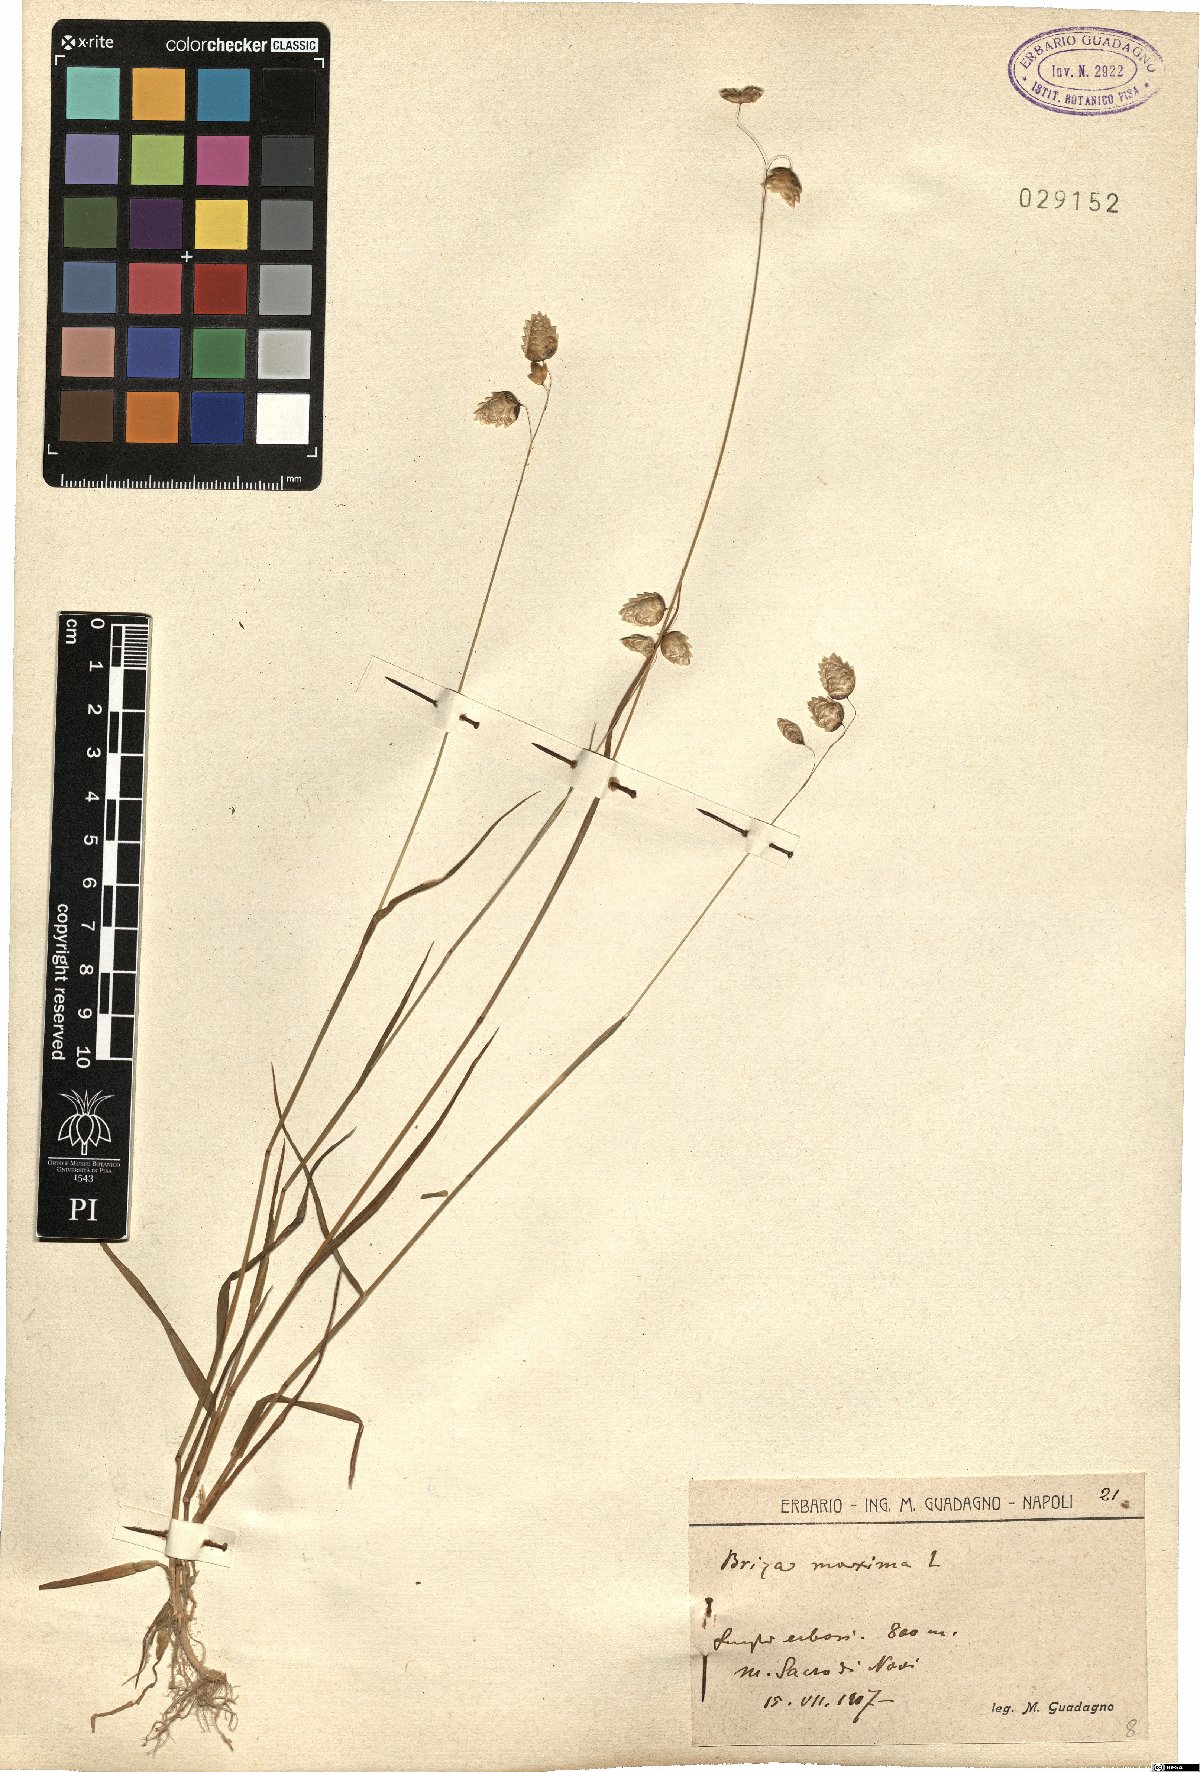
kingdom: Plantae
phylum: Tracheophyta
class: Liliopsida
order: Poales
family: Poaceae
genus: Briza
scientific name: Briza maxima
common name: Big quakinggrass
